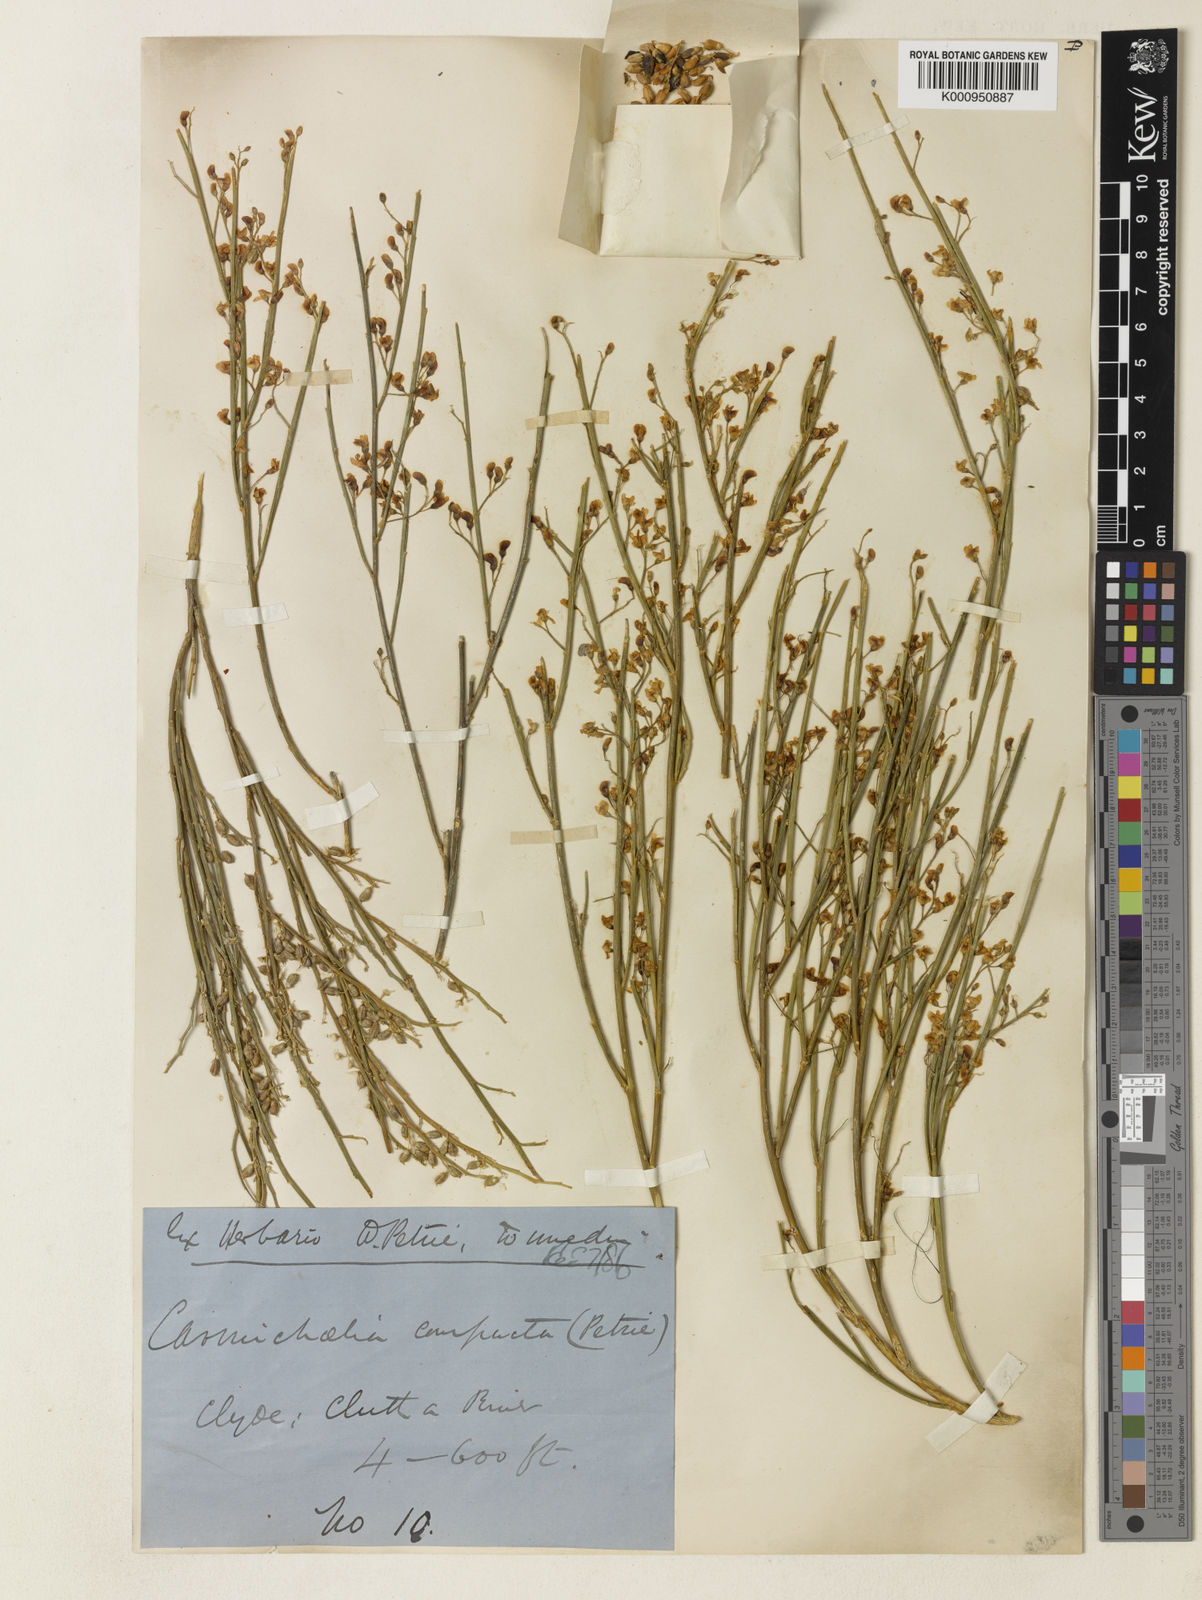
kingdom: Plantae
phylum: Tracheophyta
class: Magnoliopsida
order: Fabales
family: Fabaceae
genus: Carmichaelia
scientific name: Carmichaelia compacta
